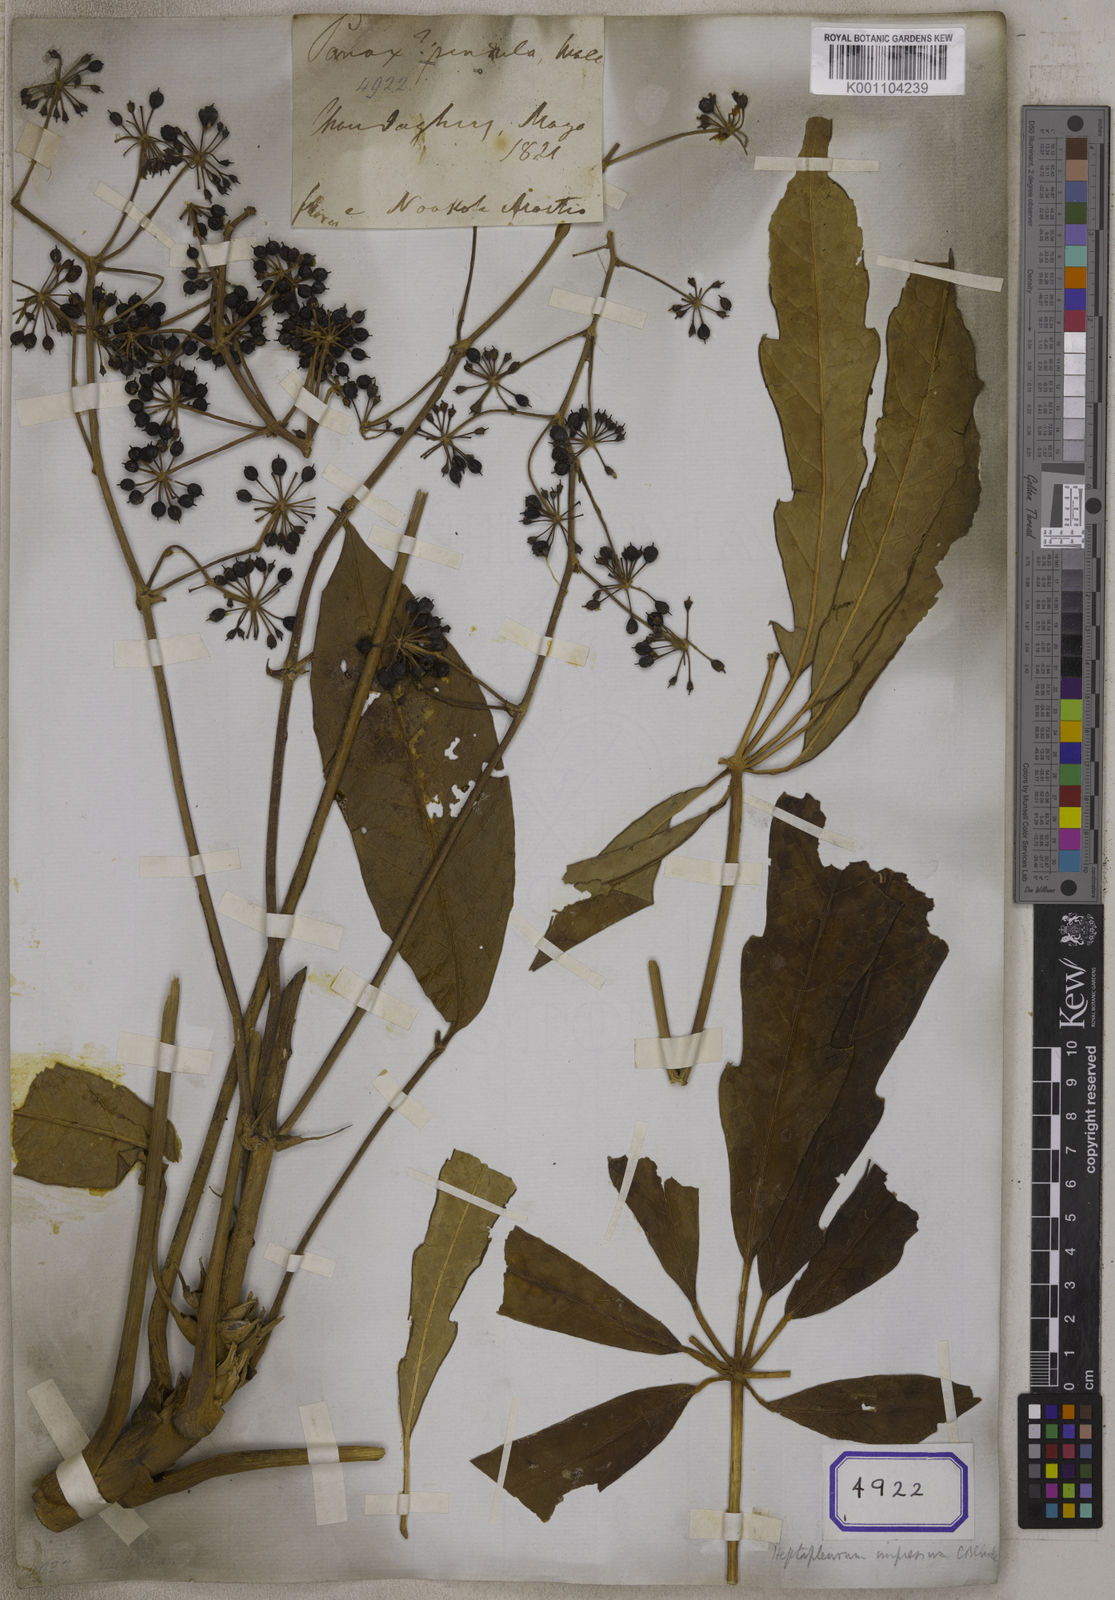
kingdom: Plantae
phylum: Tracheophyta
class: Magnoliopsida
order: Apiales
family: Araliaceae
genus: Heptapleurum
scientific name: Heptapleurum rhododendrifolium
